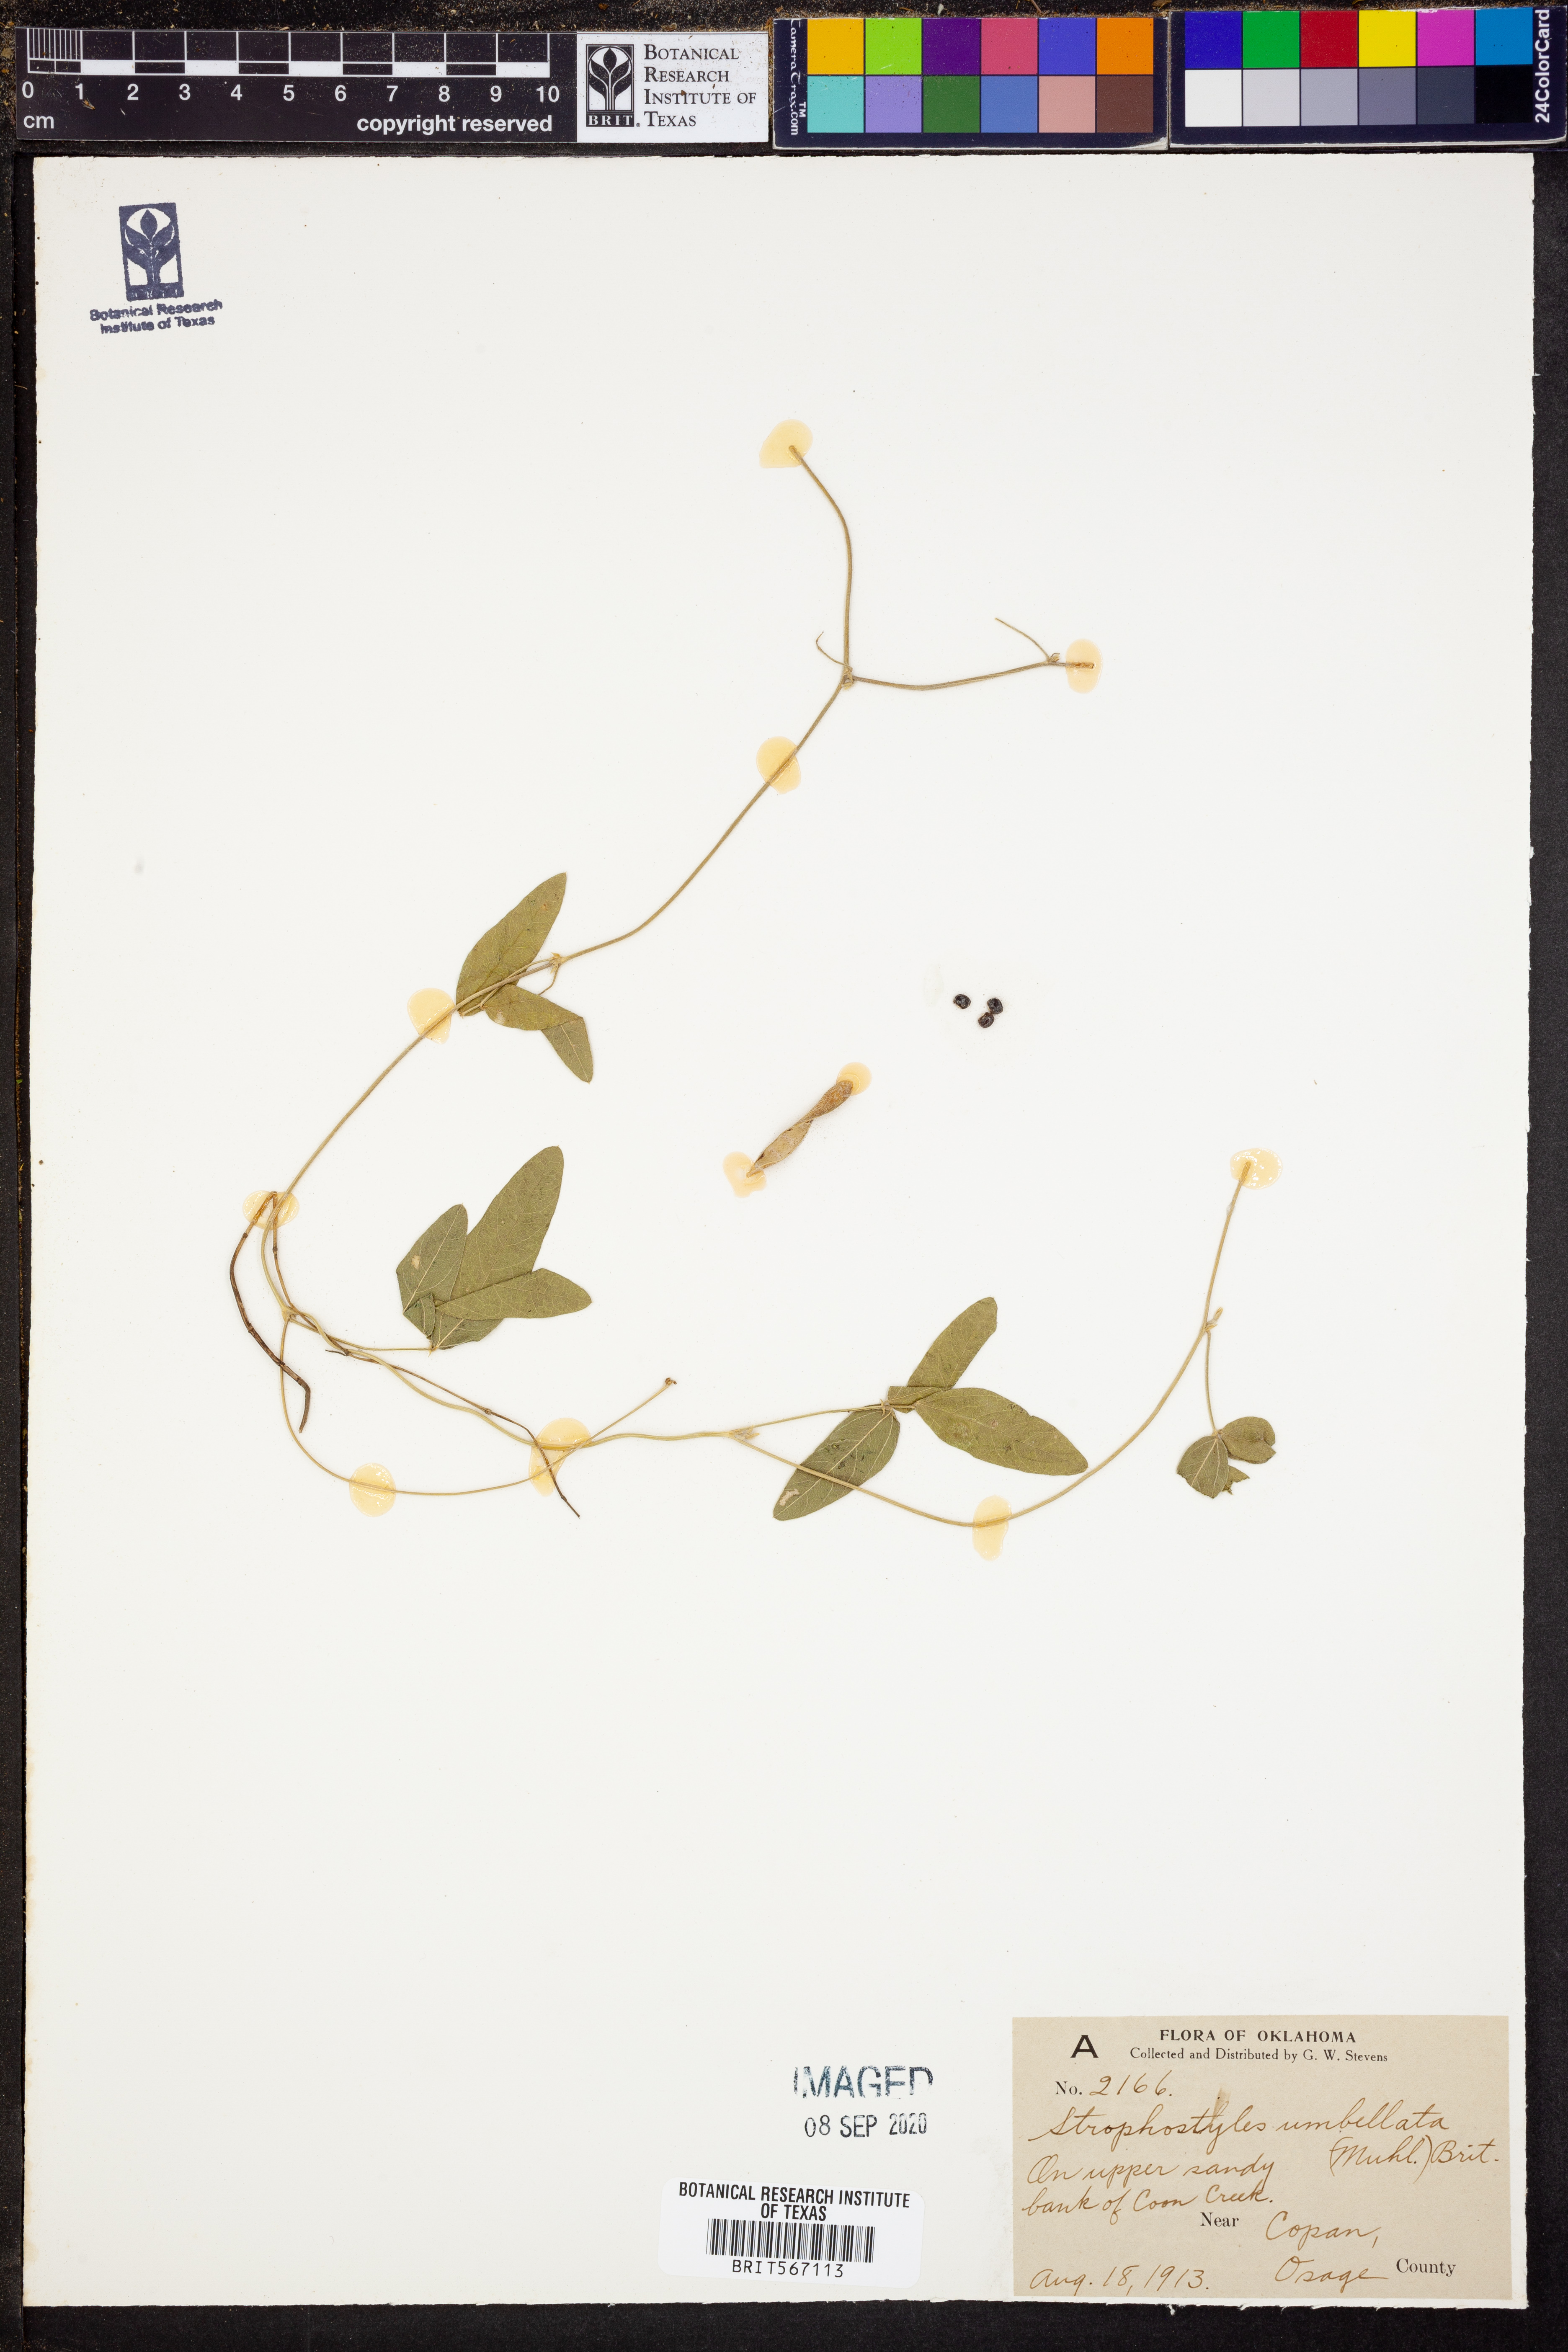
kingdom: Plantae
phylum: Tracheophyta
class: Magnoliopsida
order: Fabales
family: Fabaceae
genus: Strophostyles
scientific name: Strophostyles umbellata
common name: Perennial wild bean
